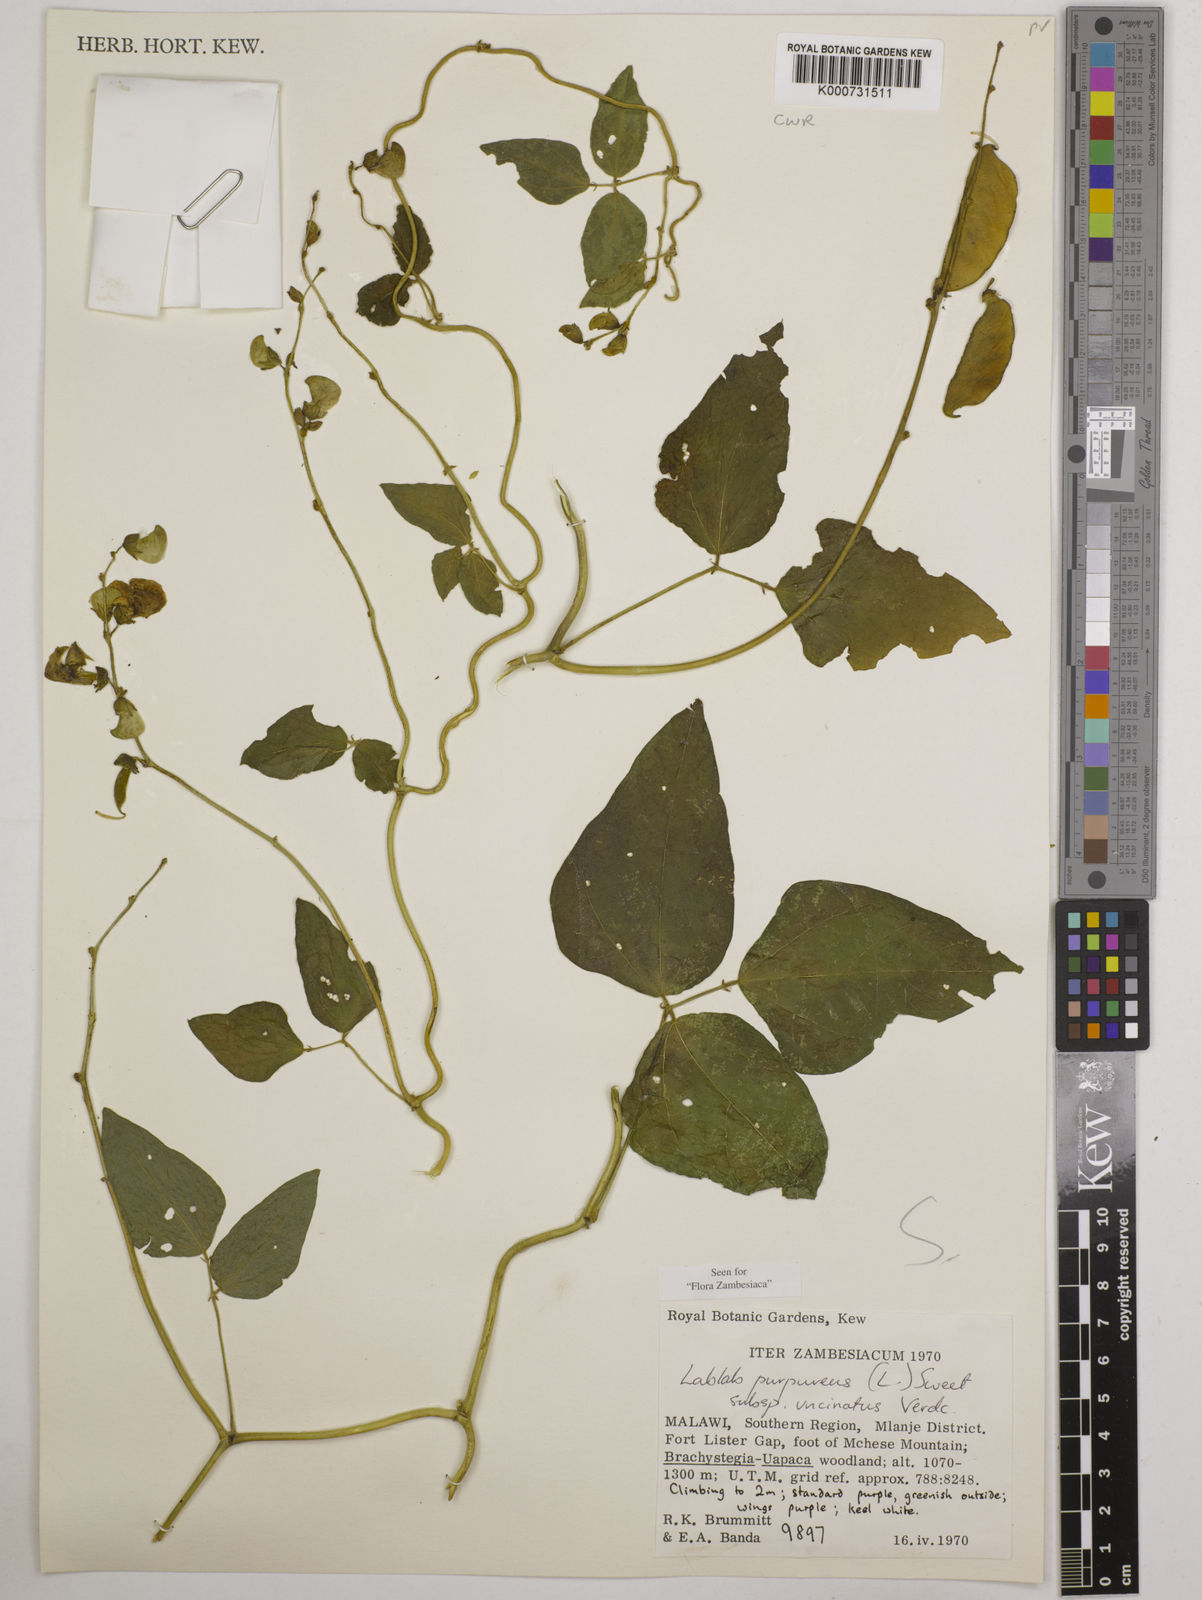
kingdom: Plantae
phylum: Tracheophyta
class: Magnoliopsida
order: Fabales
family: Fabaceae
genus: Lablab
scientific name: Lablab purpureus
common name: Lablab-bean
